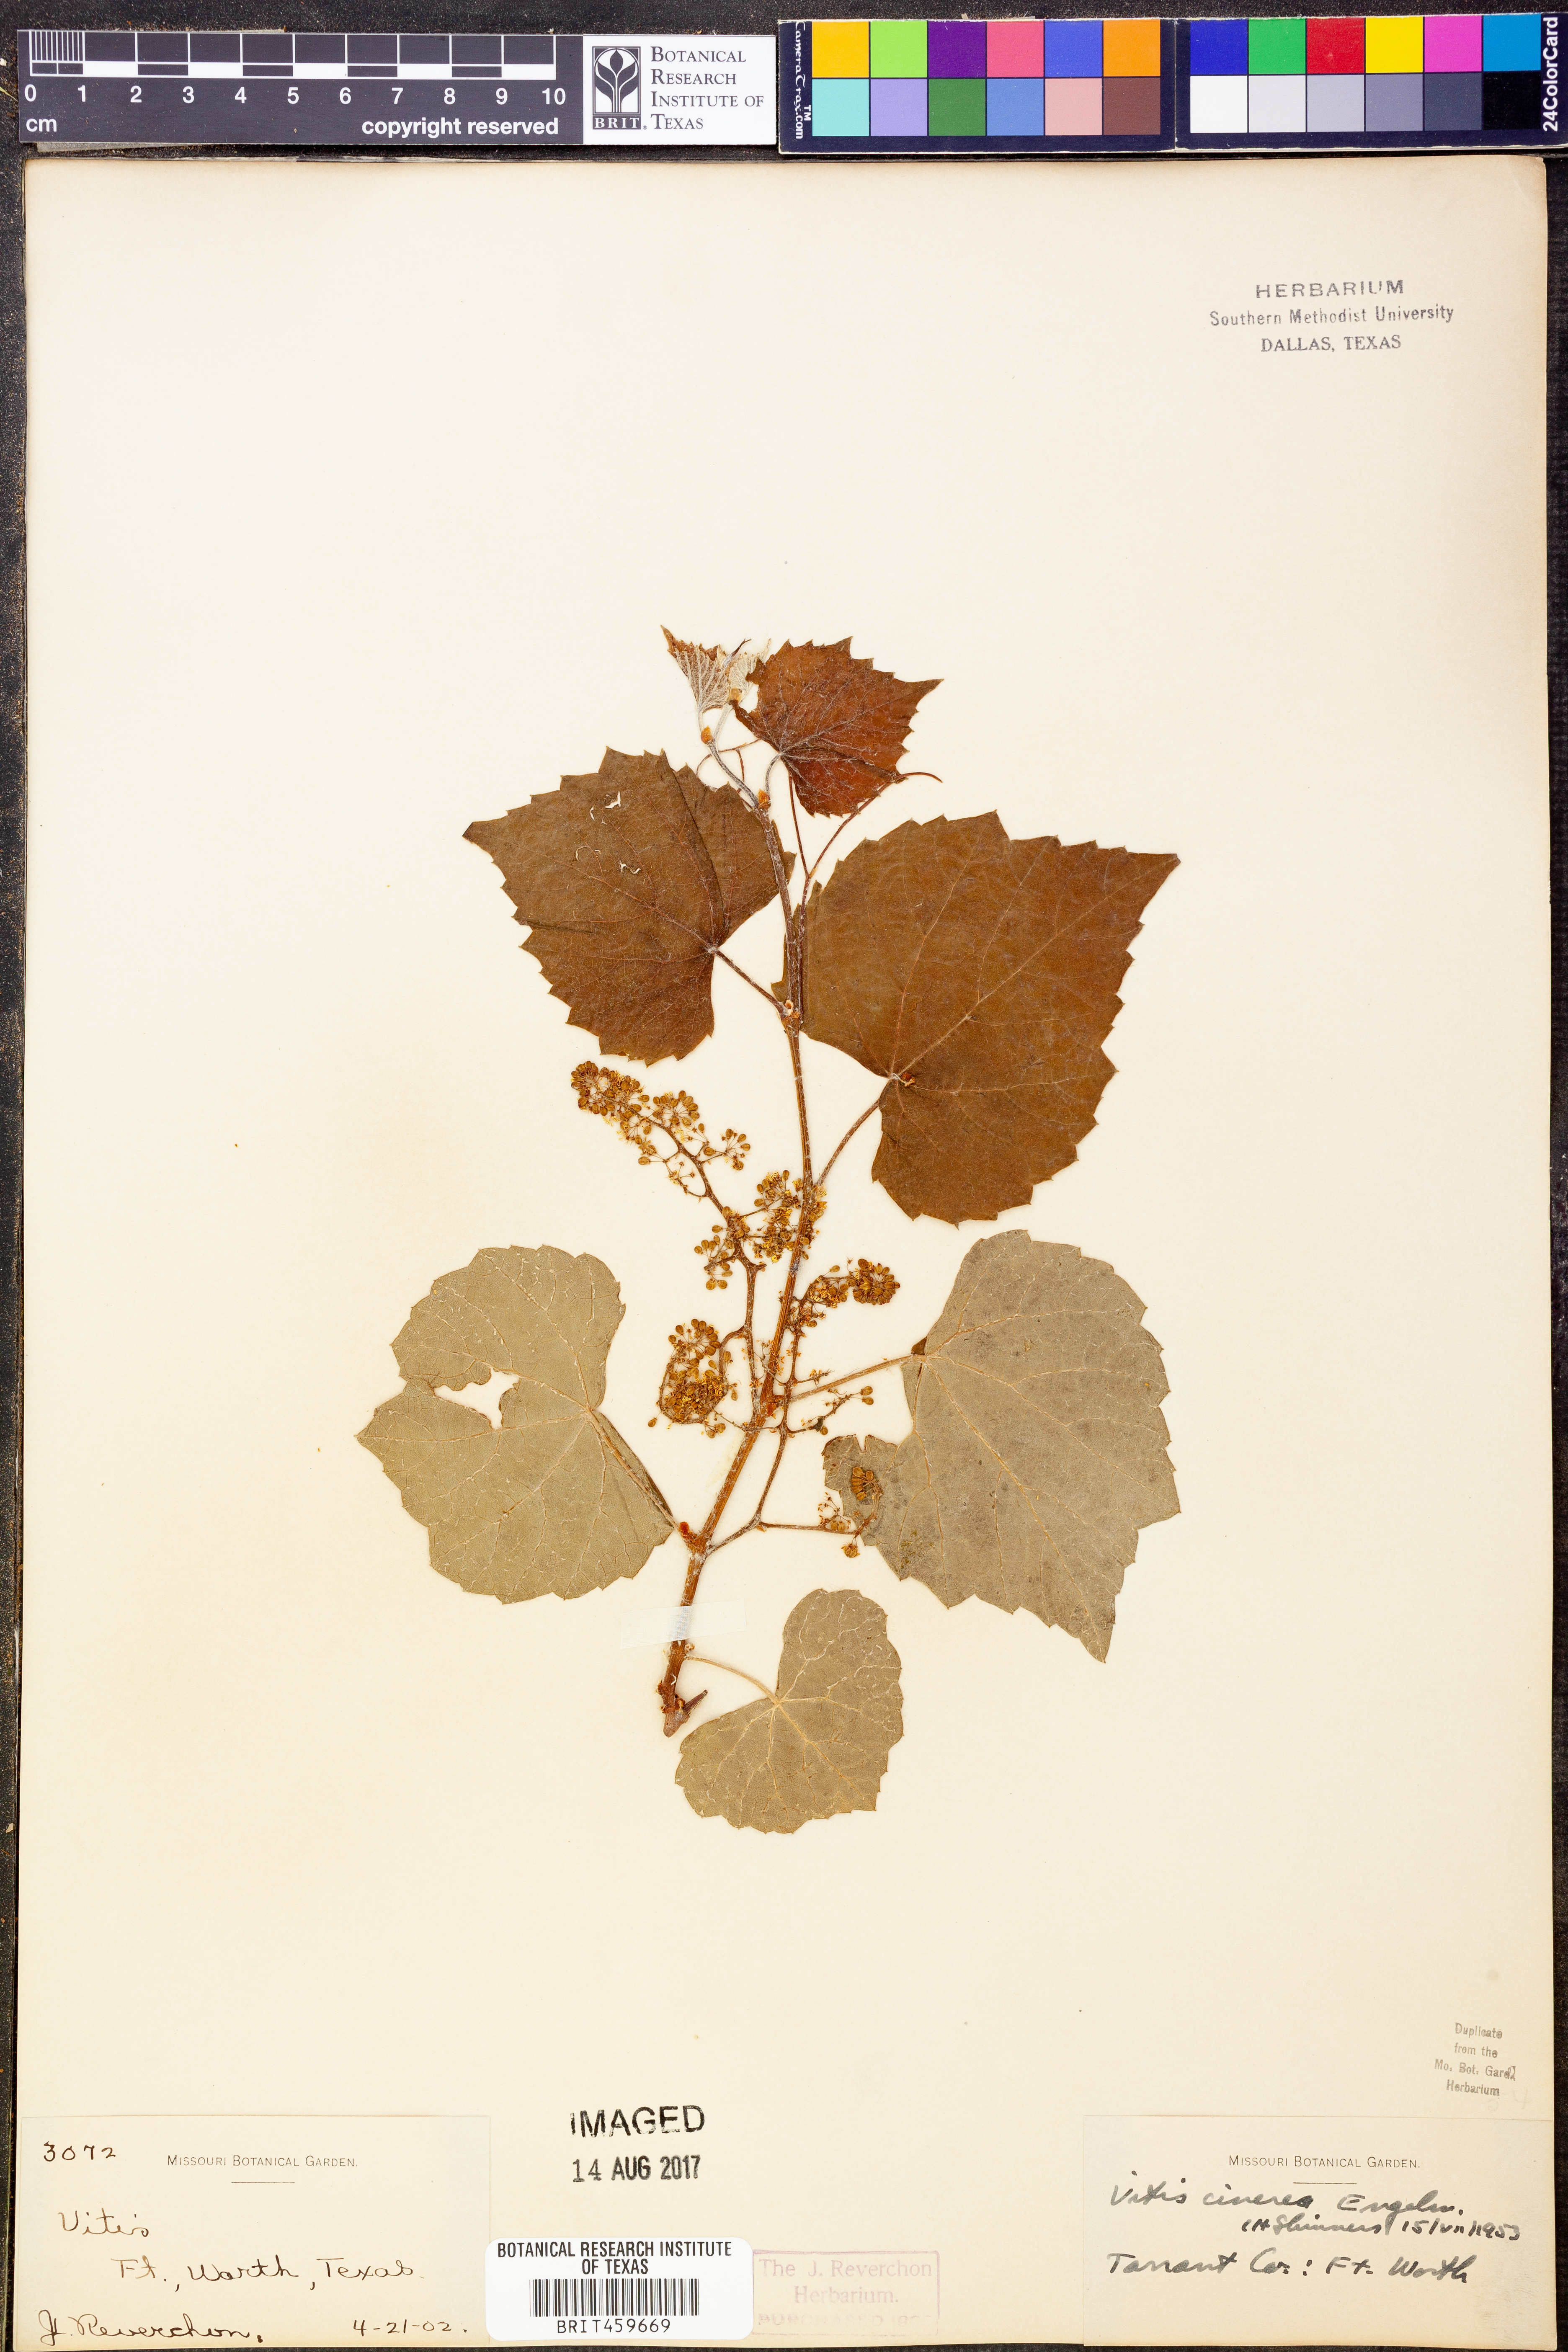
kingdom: Plantae
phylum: Tracheophyta
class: Magnoliopsida
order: Vitales
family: Vitaceae
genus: Vitis
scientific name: Vitis cinerea
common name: Ashy grape
